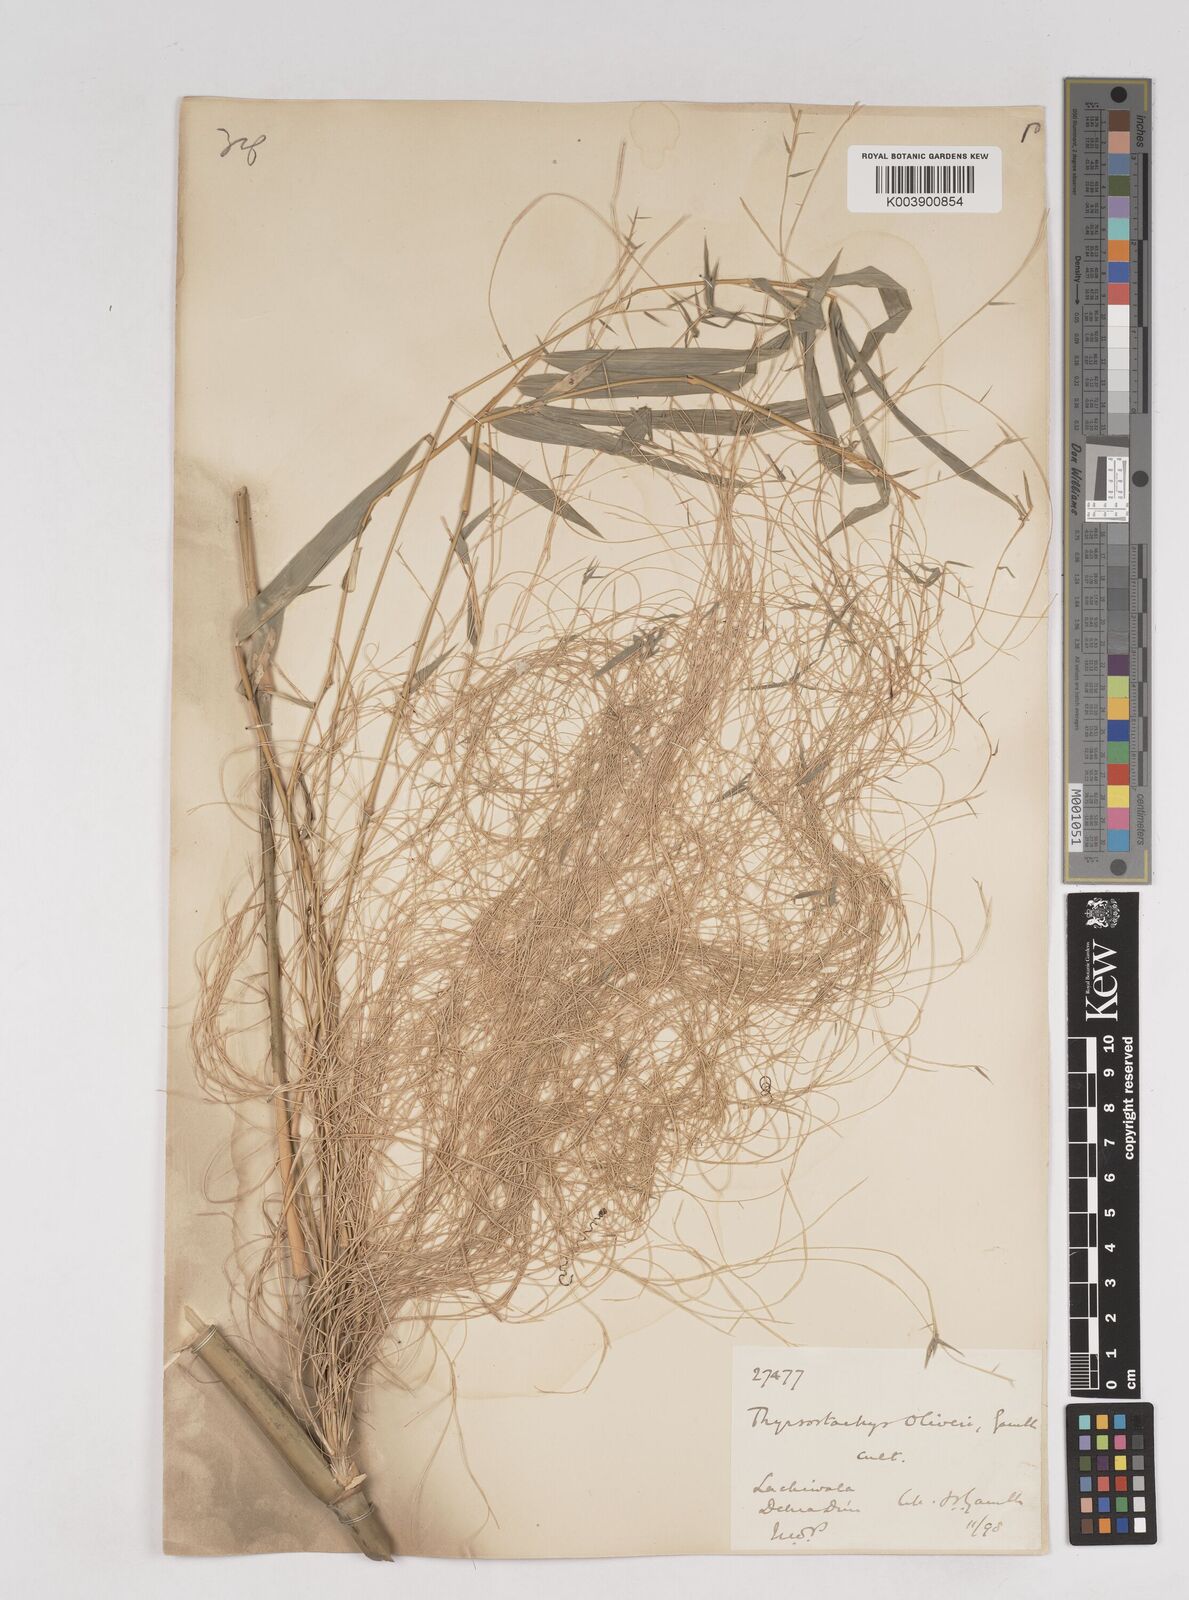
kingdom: Plantae
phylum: Tracheophyta
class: Liliopsida
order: Poales
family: Poaceae
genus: Thyrsostachys
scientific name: Thyrsostachys oliveri
